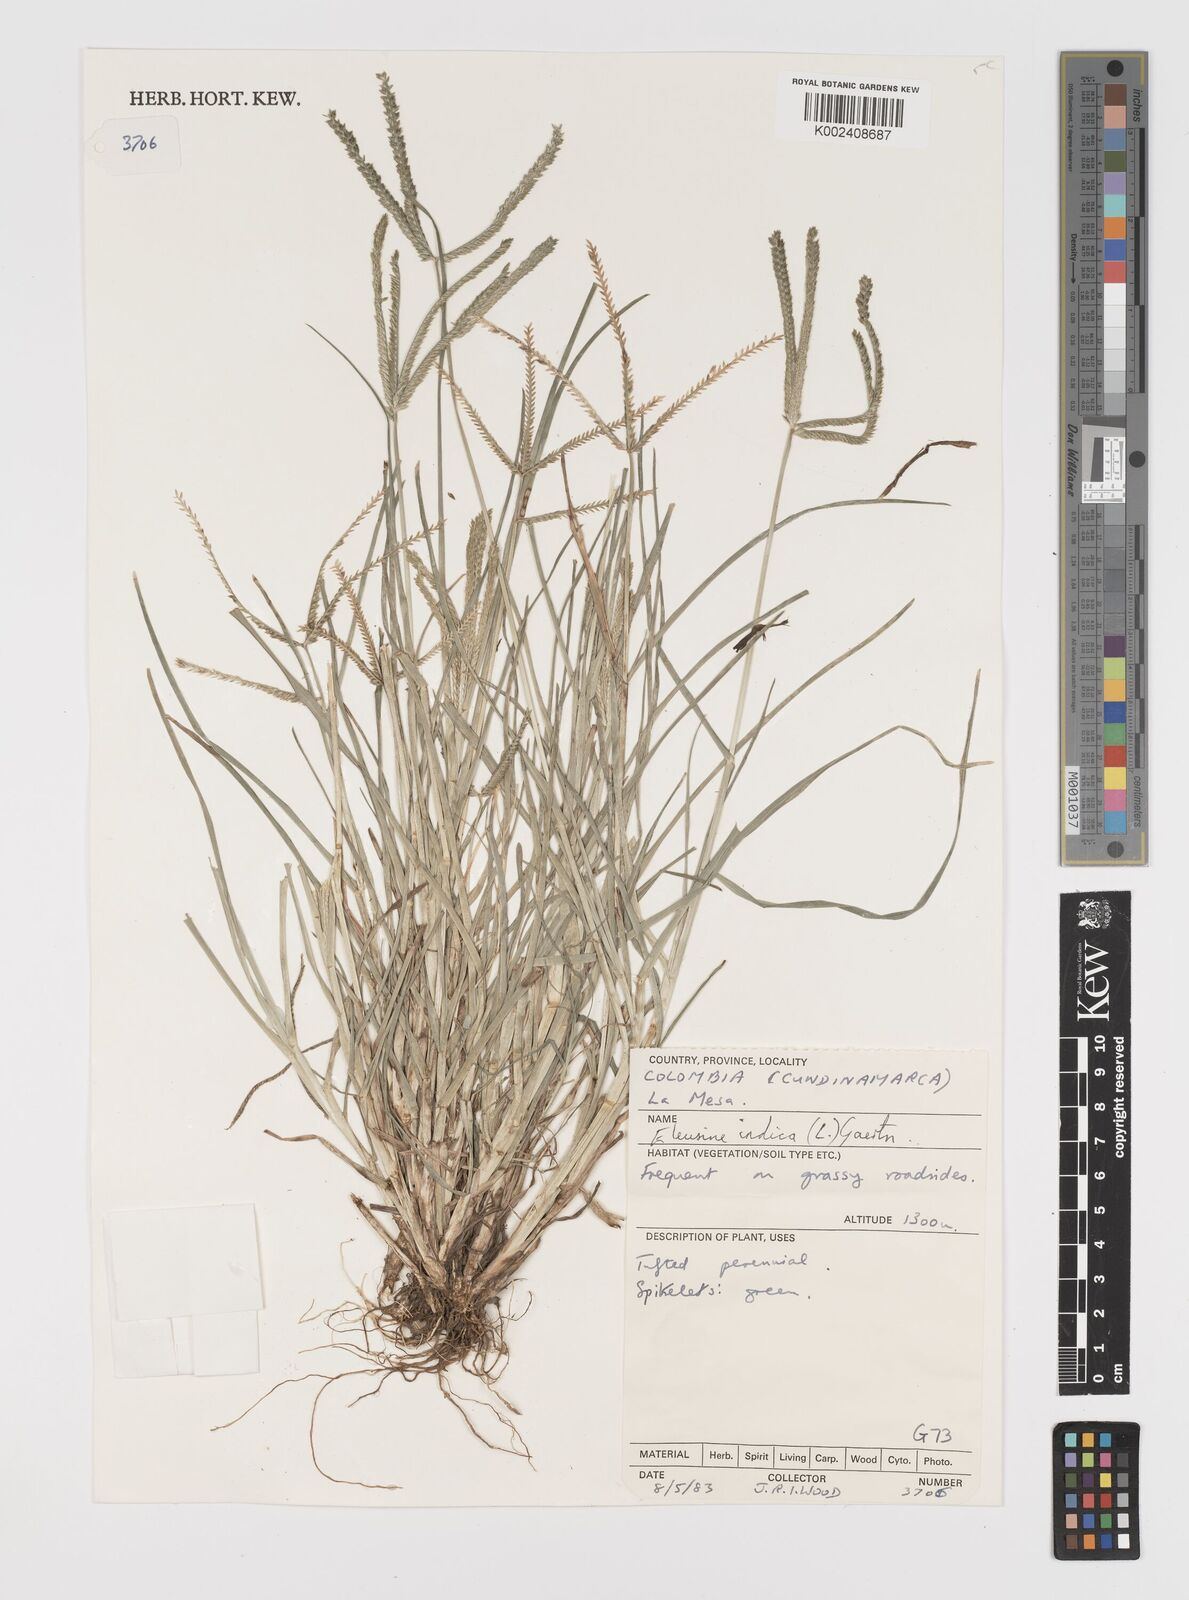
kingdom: Plantae
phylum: Tracheophyta
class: Liliopsida
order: Poales
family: Poaceae
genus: Eleusine
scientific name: Eleusine indica
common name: Yard-grass
